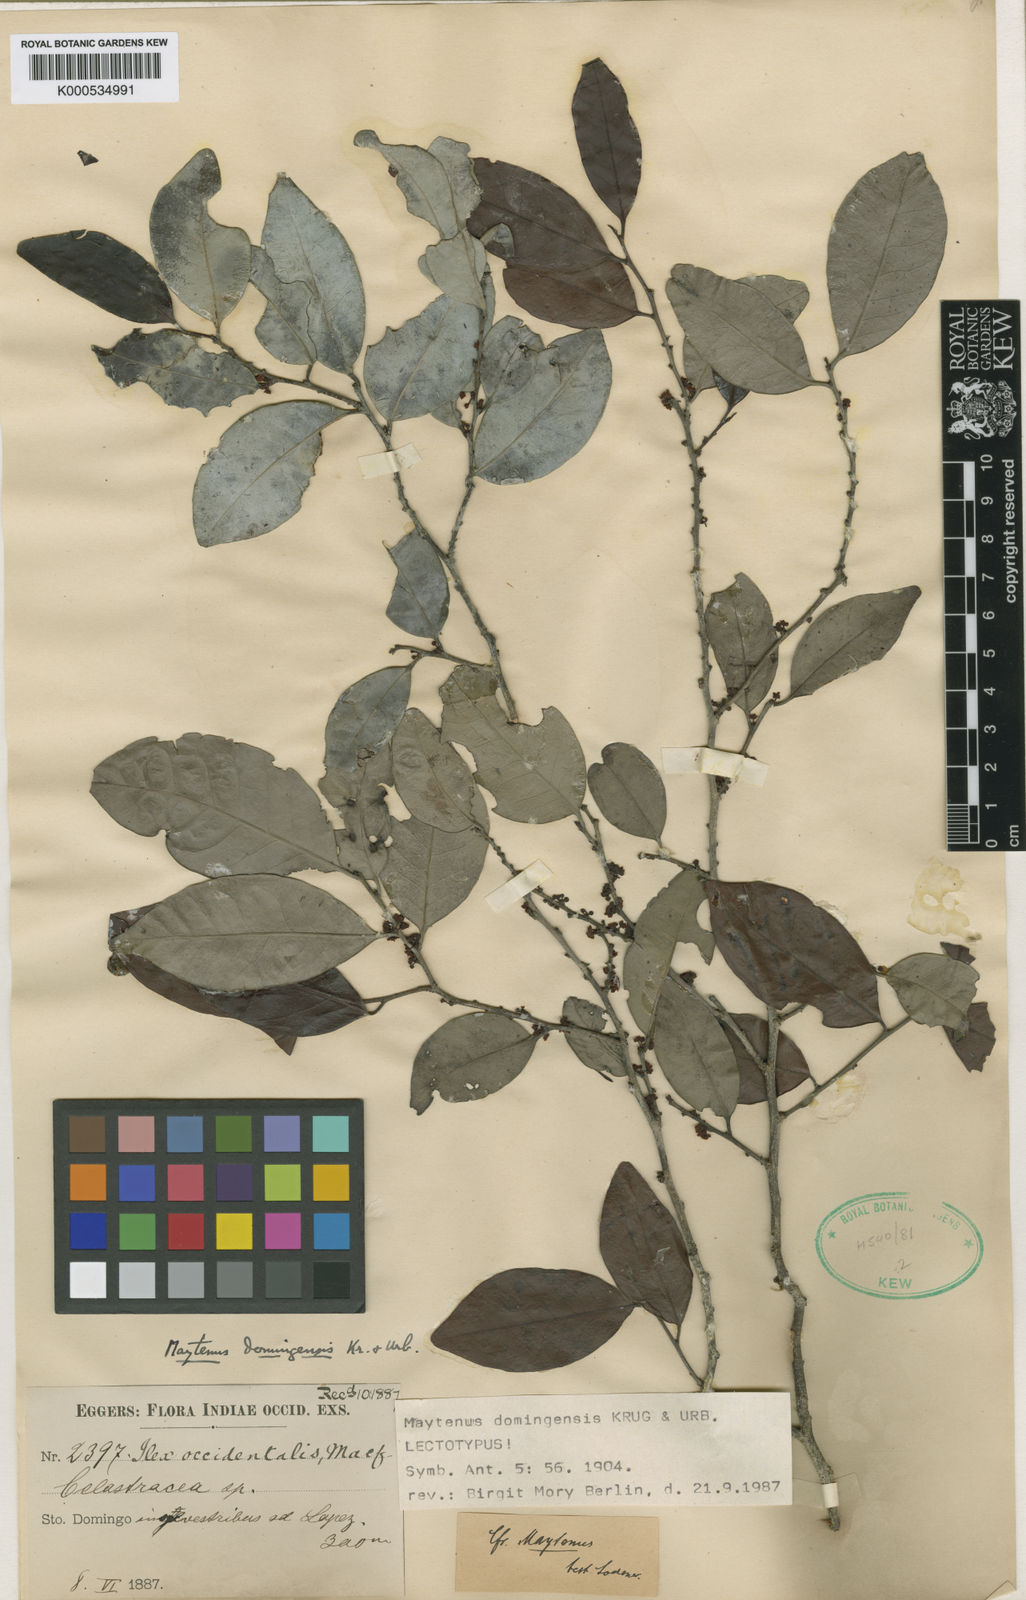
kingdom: Plantae
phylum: Tracheophyta
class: Magnoliopsida
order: Celastrales
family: Celastraceae
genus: Monteverdia
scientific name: Monteverdia domingensis
